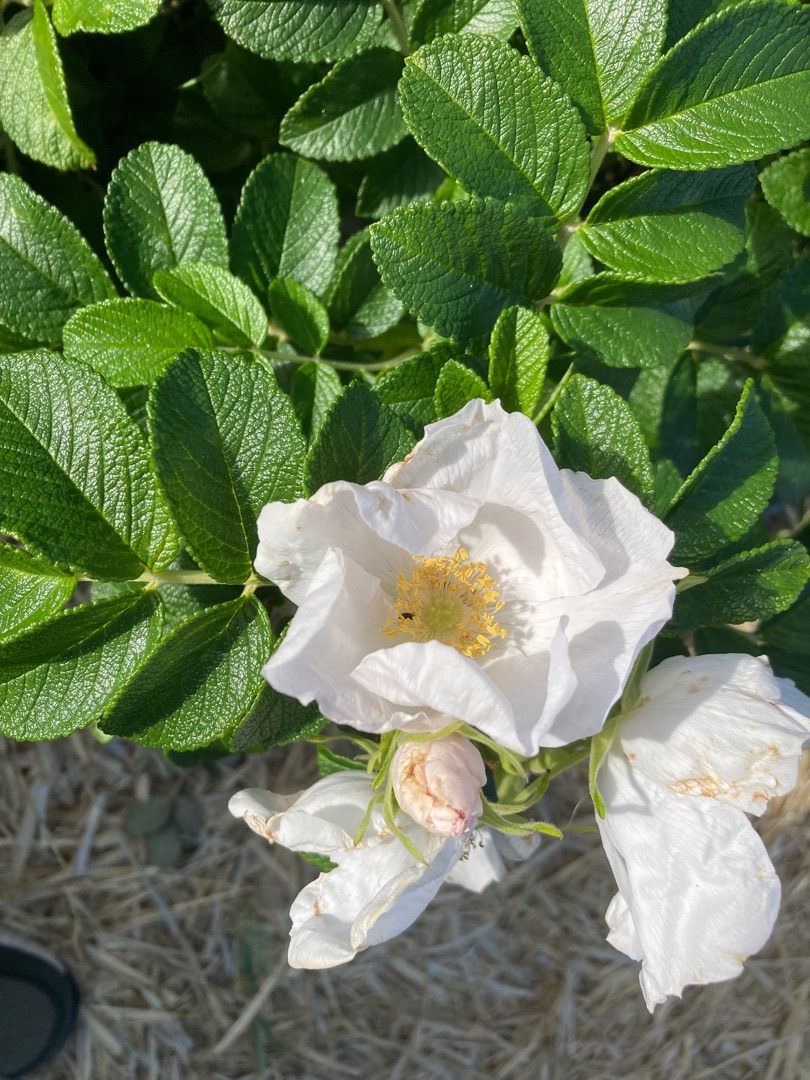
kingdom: Plantae
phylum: Tracheophyta
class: Magnoliopsida
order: Rosales
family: Rosaceae
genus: Rosa
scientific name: Rosa rugosa
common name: Rynket rose
